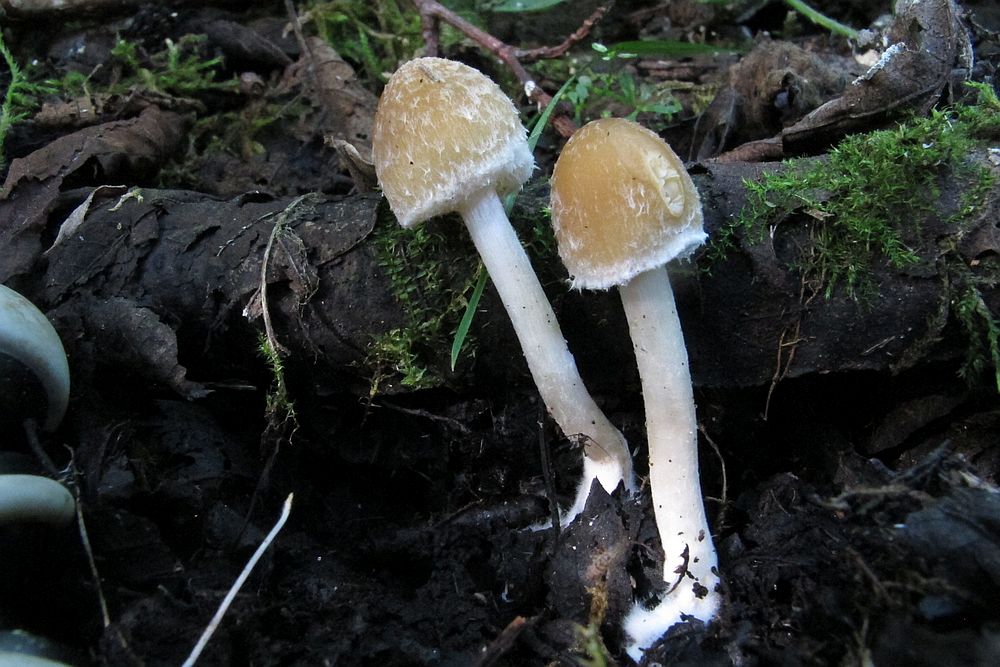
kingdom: Fungi
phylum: Basidiomycota
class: Agaricomycetes
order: Agaricales
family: Psathyrellaceae
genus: Candolleomyces
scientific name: Candolleomyces candolleanus
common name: Candolles mørkhat
